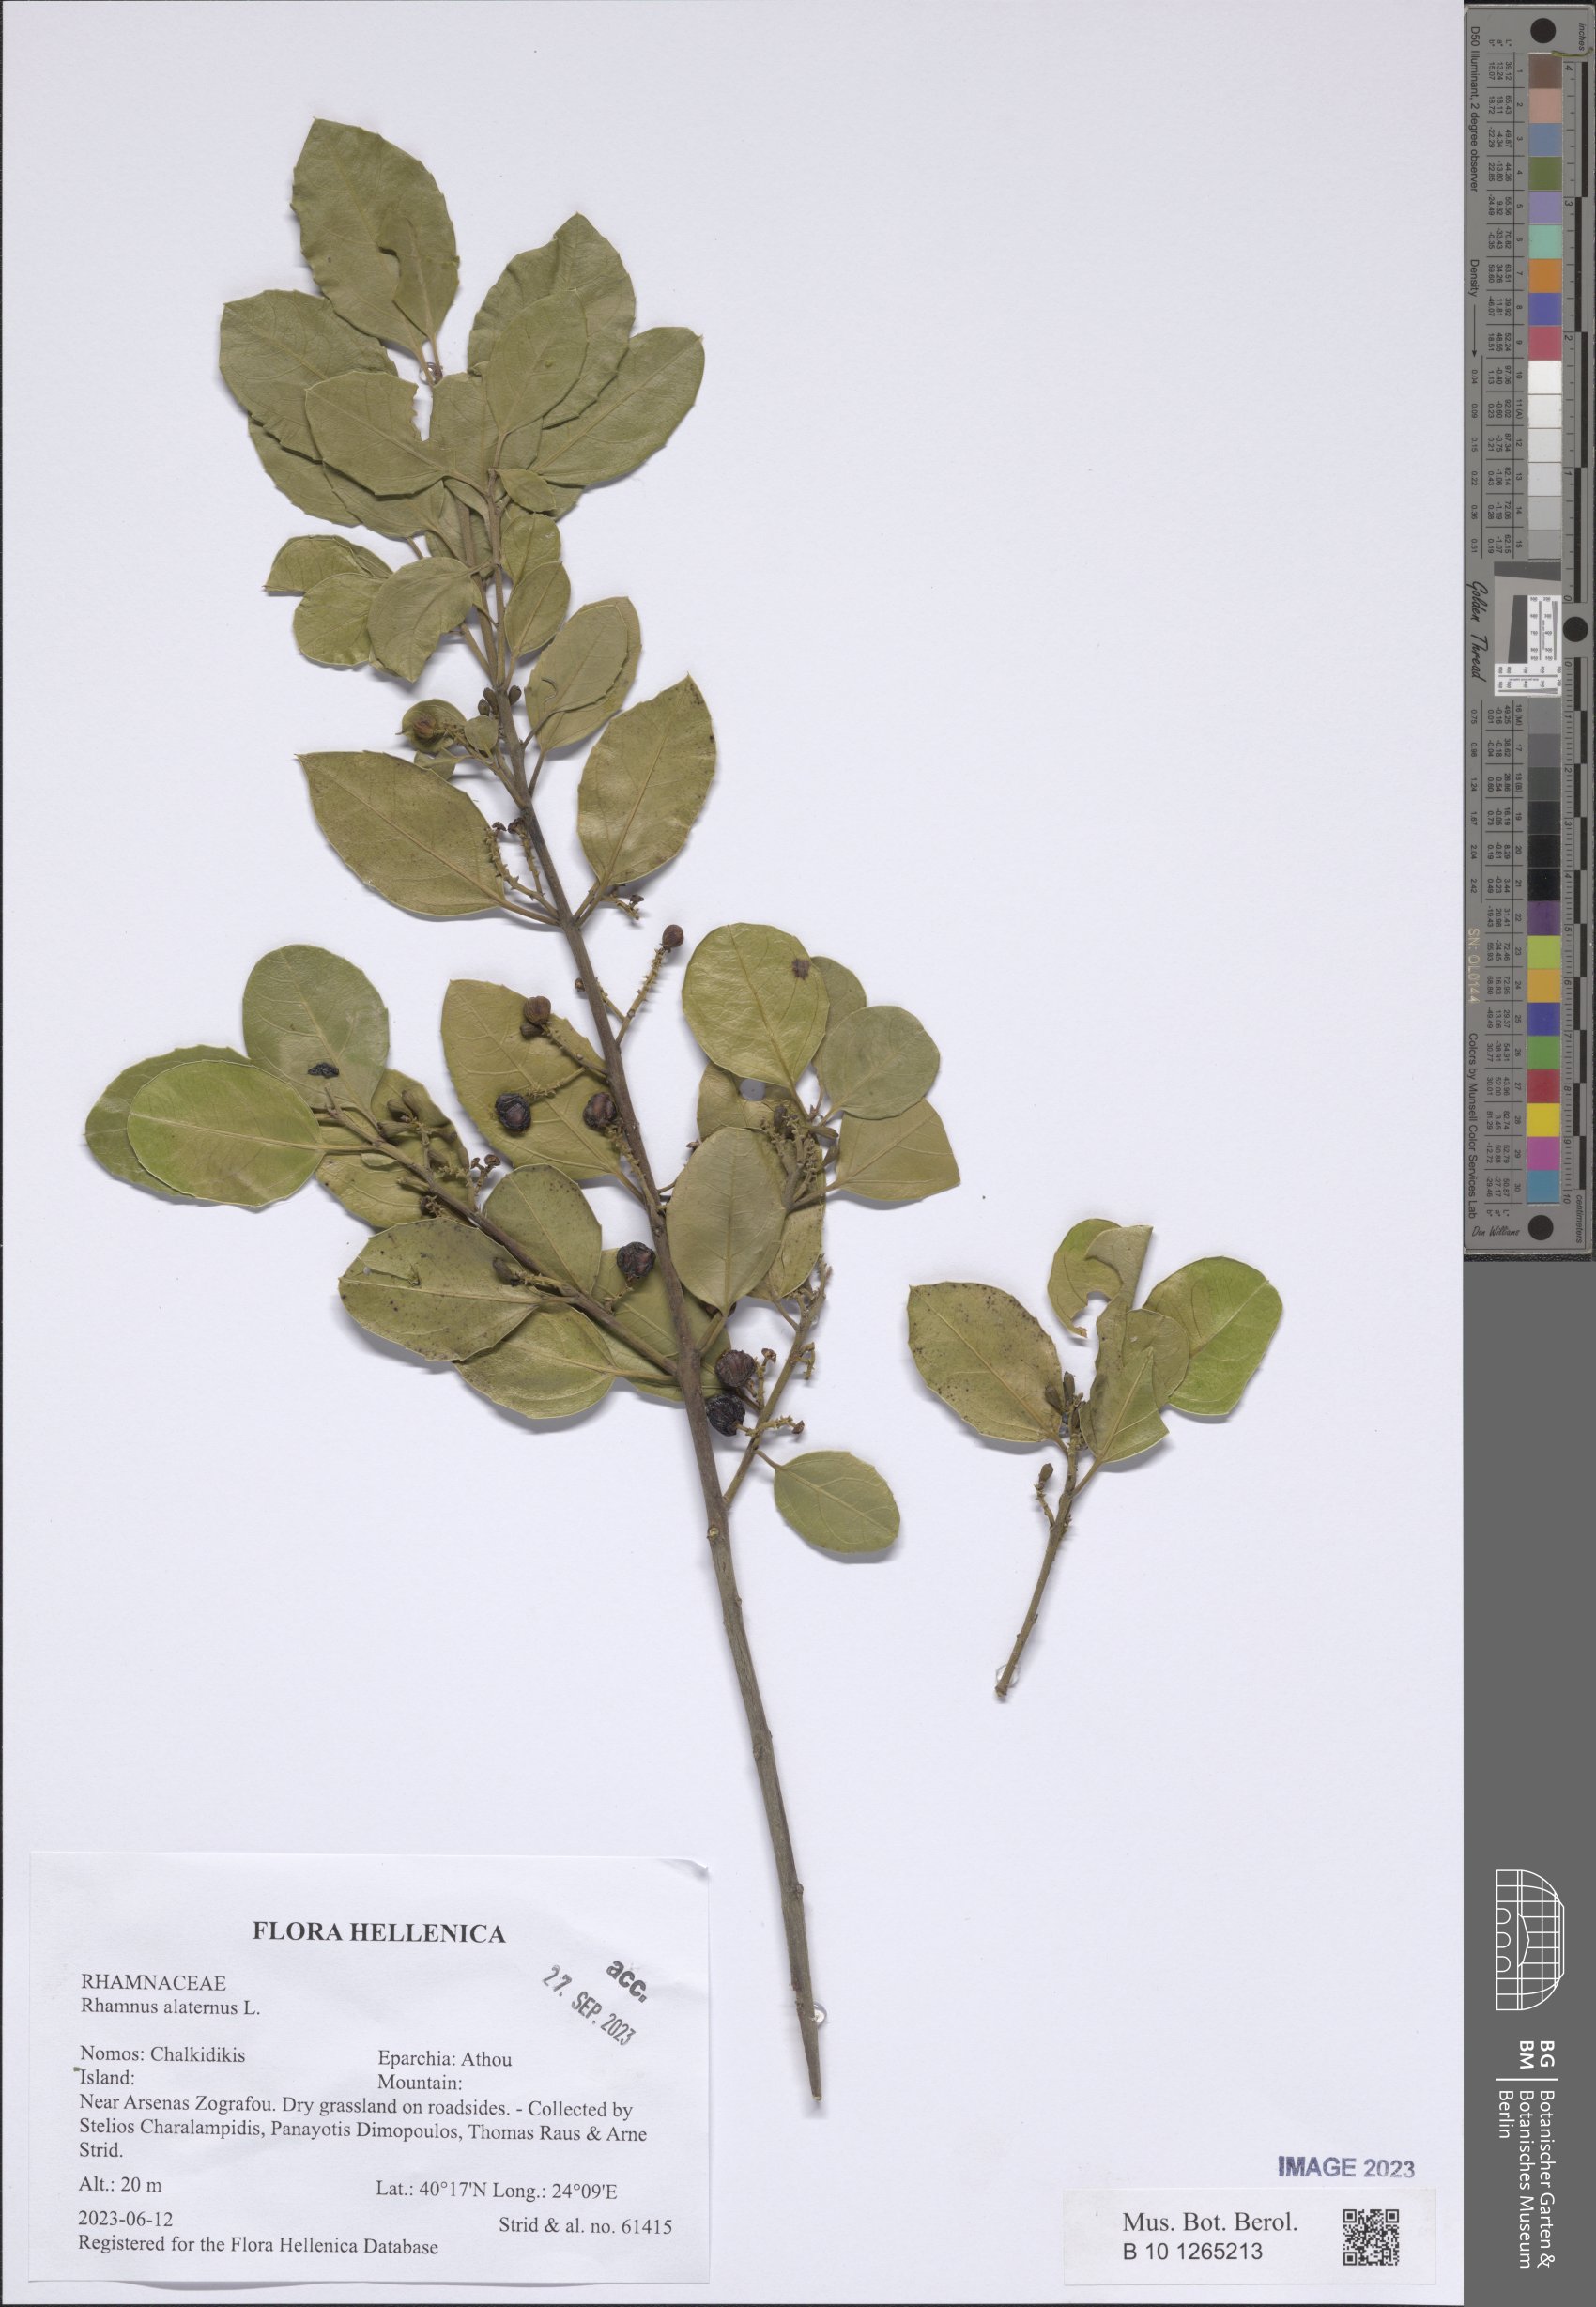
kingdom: Plantae
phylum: Tracheophyta
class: Magnoliopsida
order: Rosales
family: Rhamnaceae
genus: Rhamnus
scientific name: Rhamnus alaternus
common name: Mediterranean buckthorn
